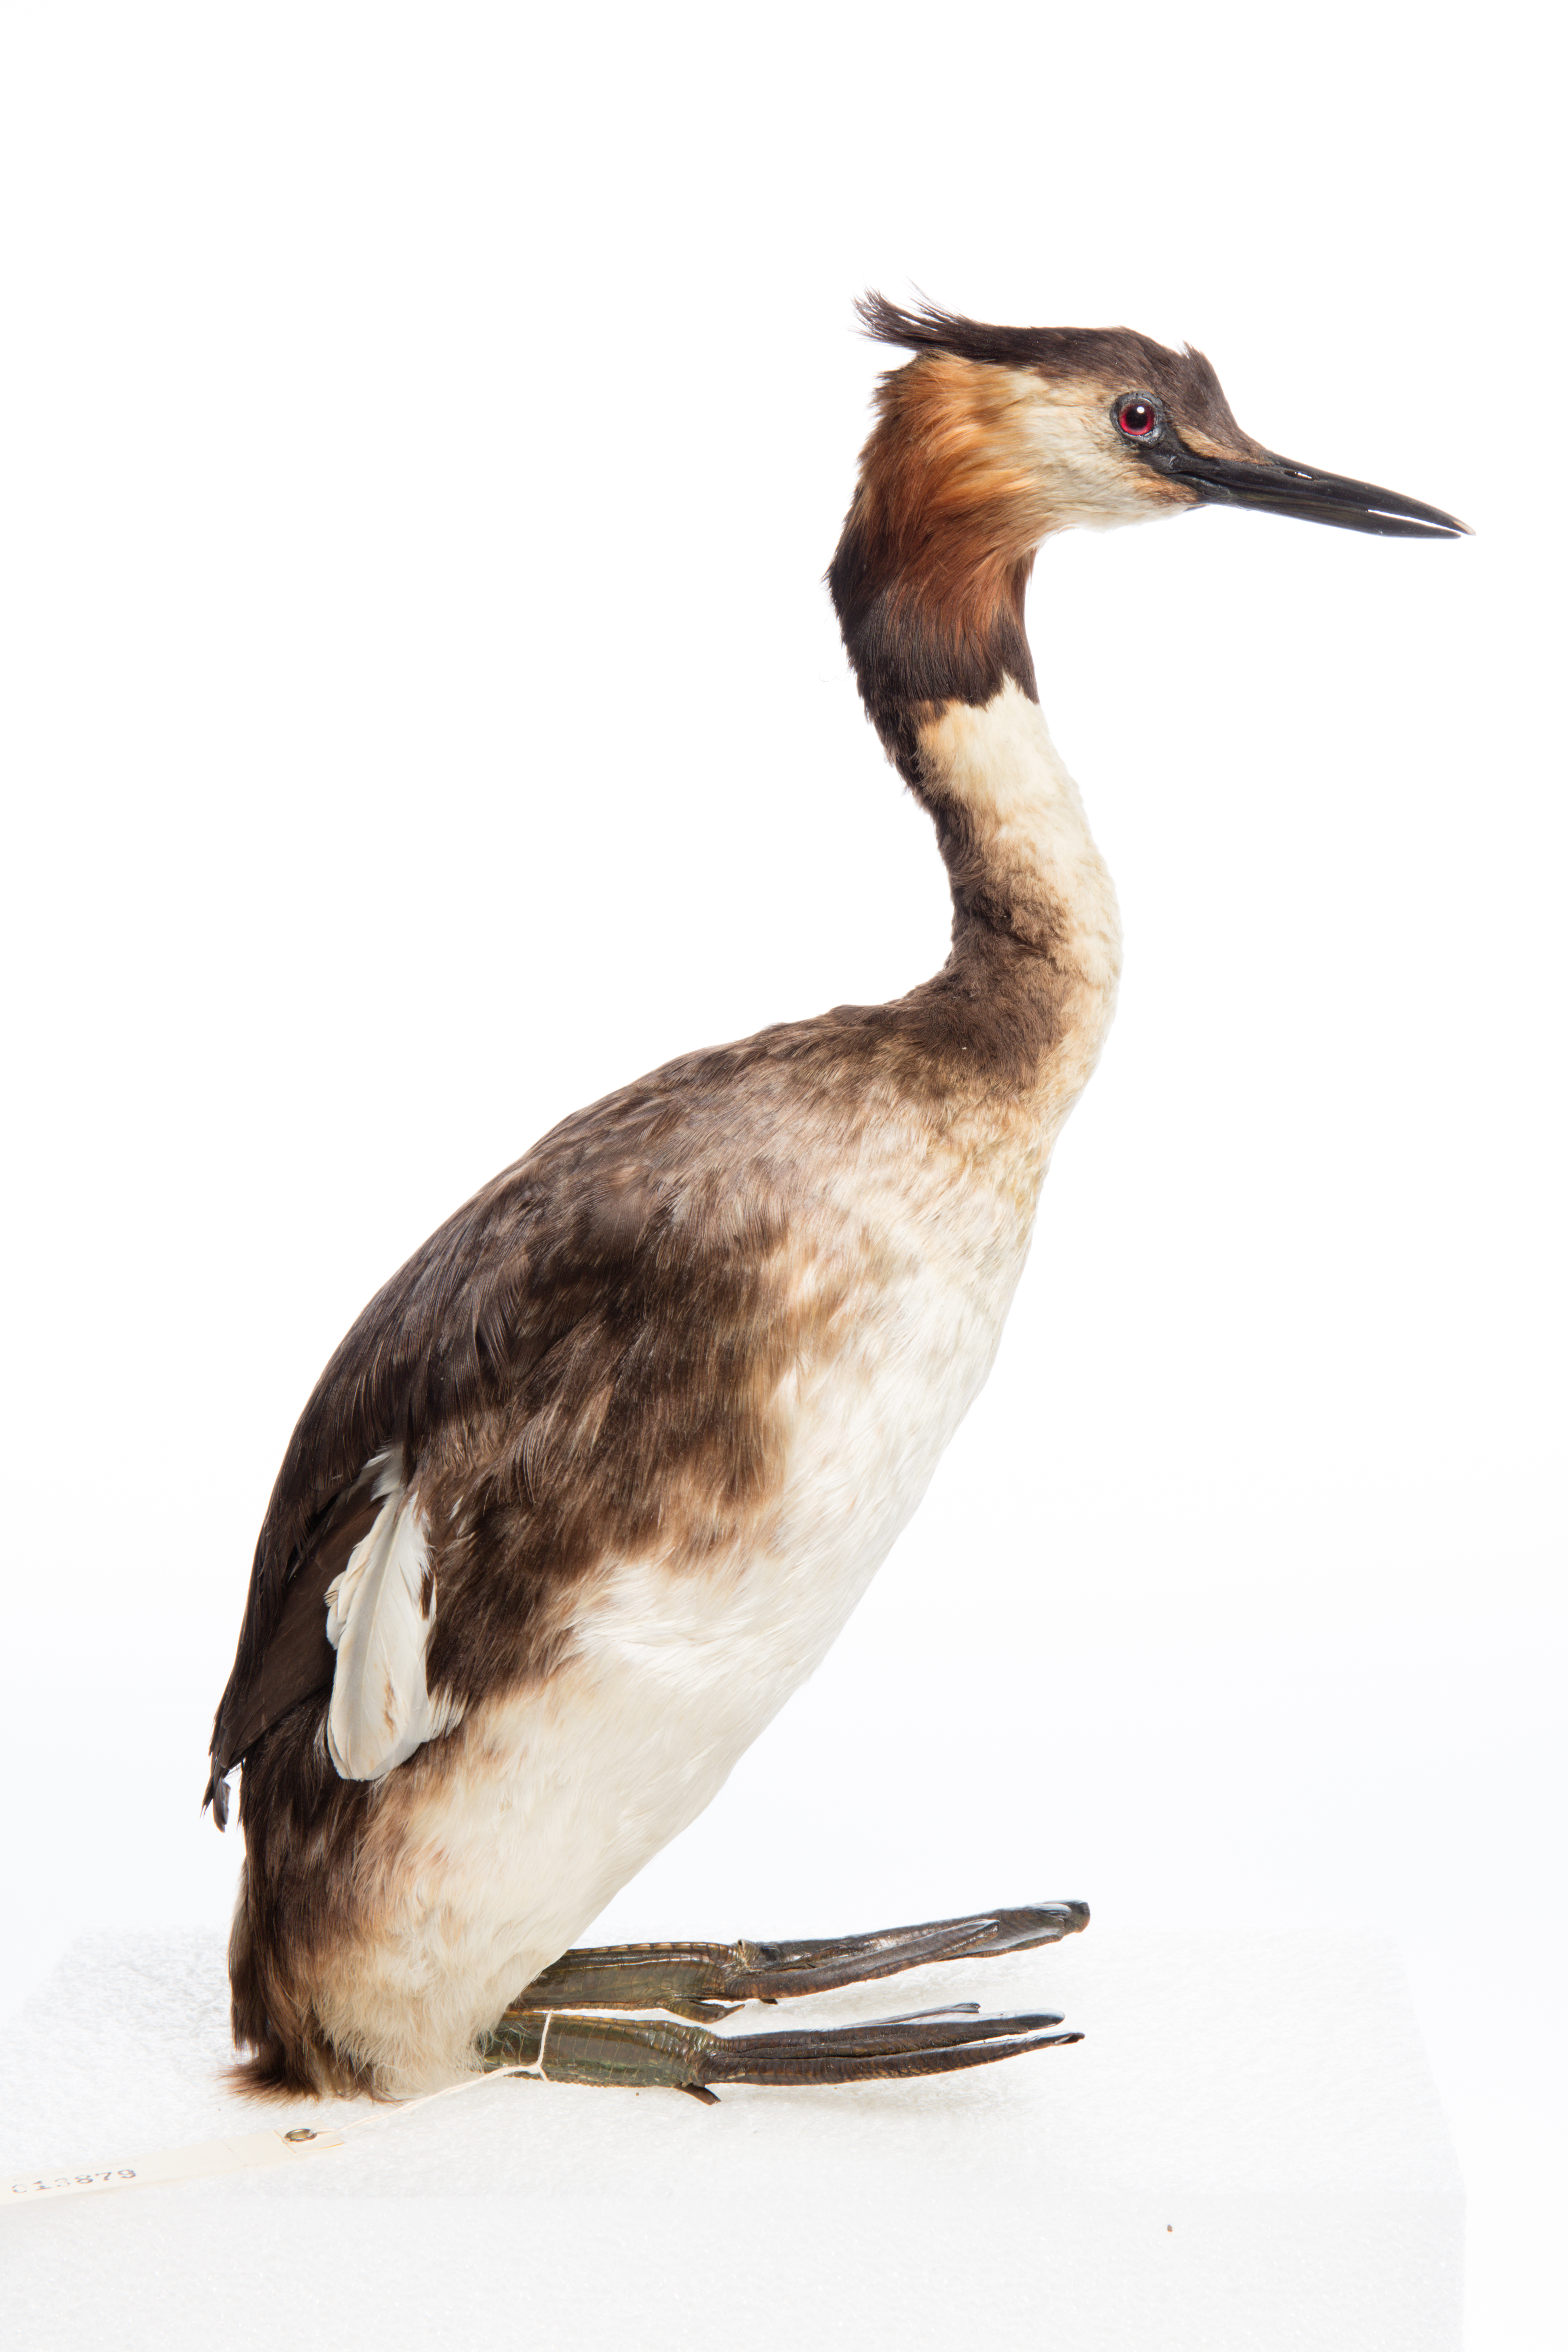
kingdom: Animalia
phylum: Chordata
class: Aves
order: Podicipediformes
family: Podicipedidae
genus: Podiceps
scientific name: Podiceps cristatus
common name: Great crested grebe
